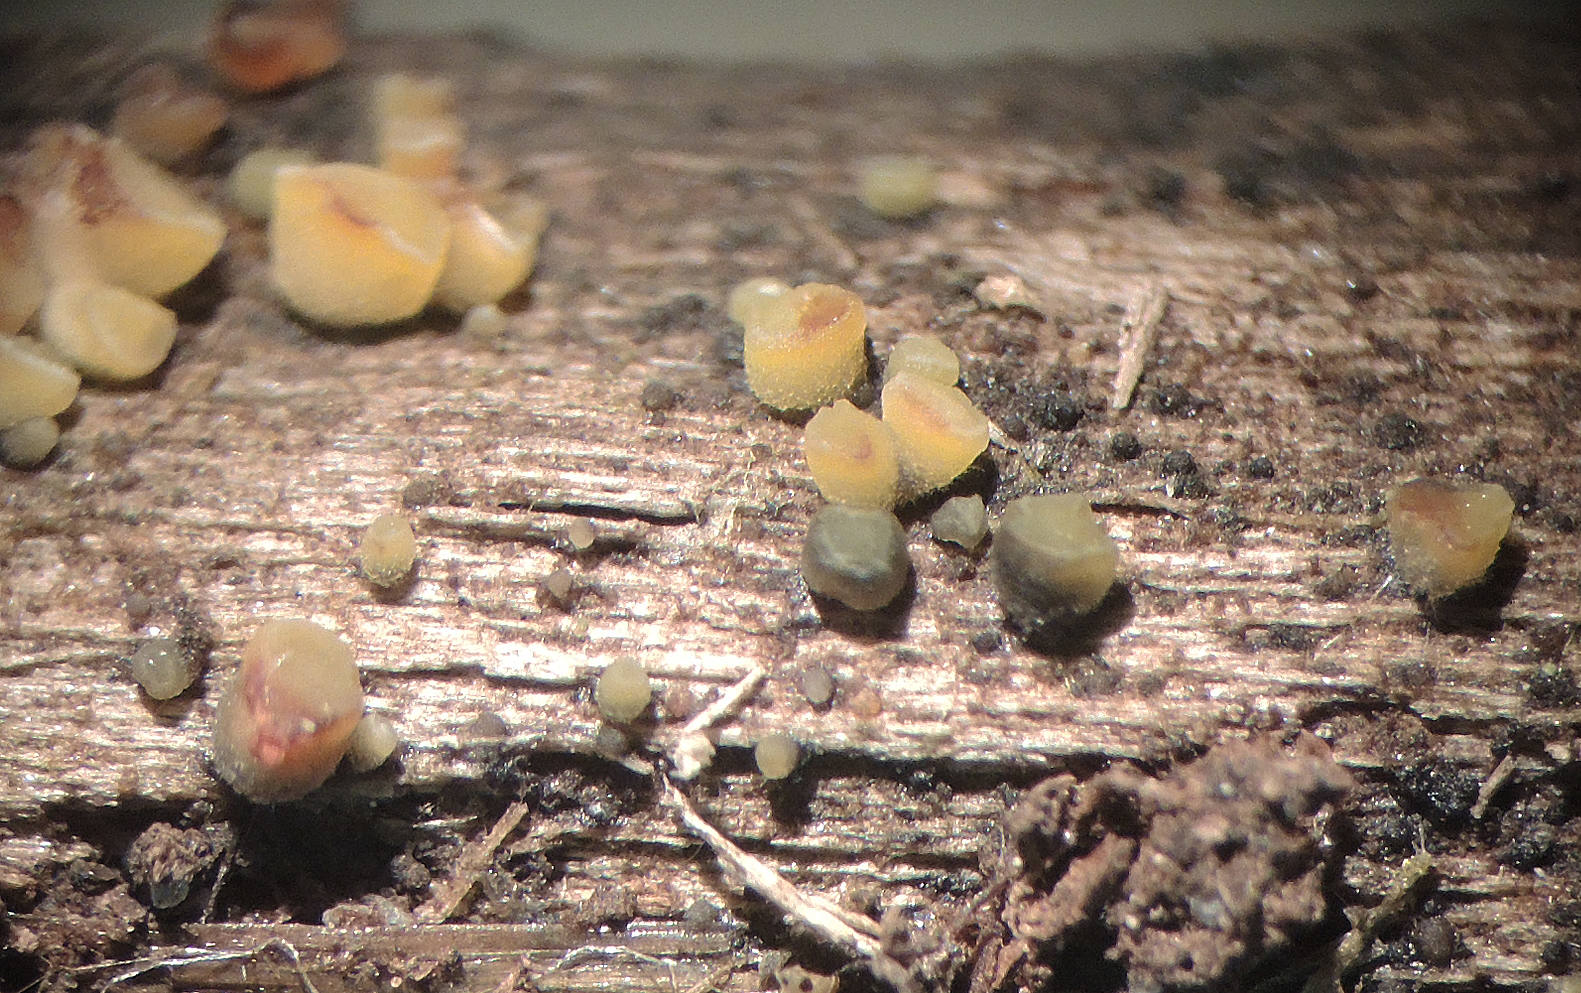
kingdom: Fungi
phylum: Ascomycota
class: Leotiomycetes
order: Helotiales
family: Helotiaceae
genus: Phaeohelotium
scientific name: Phaeohelotium fulvidulum
